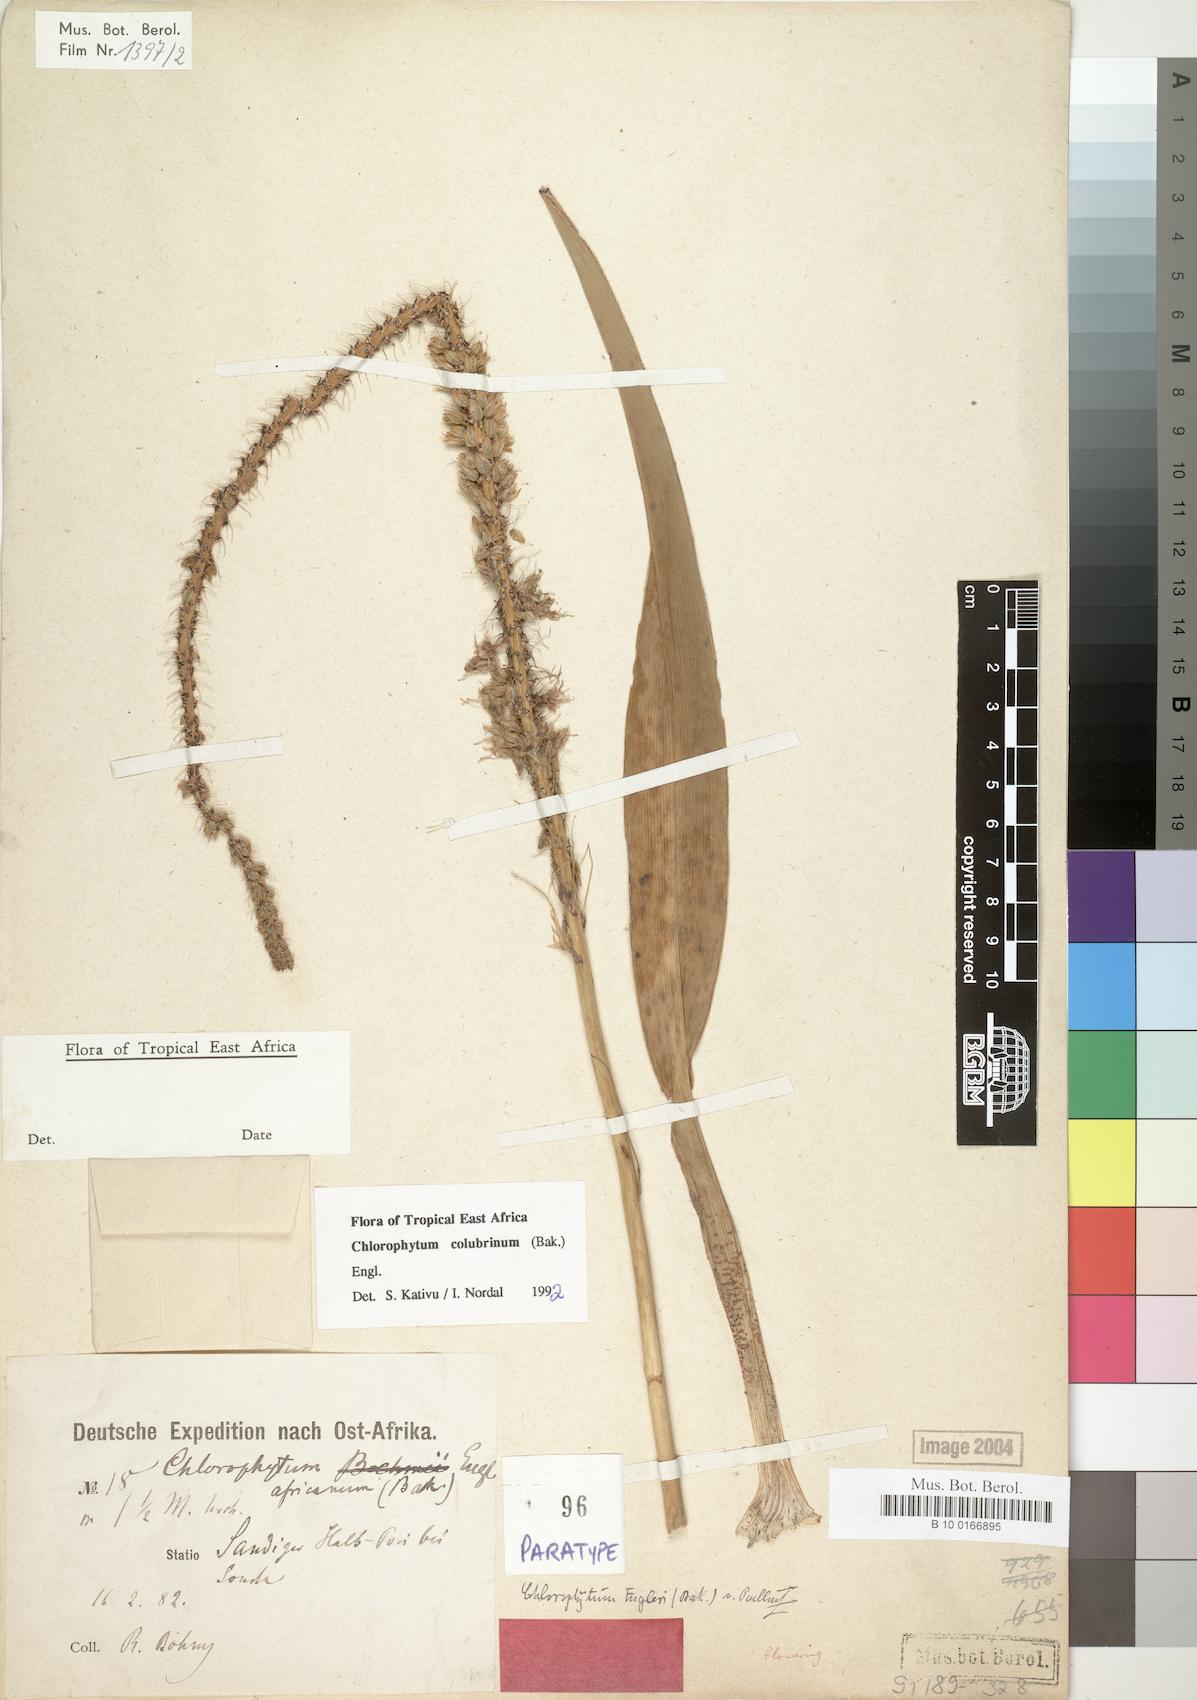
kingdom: Plantae
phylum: Tracheophyta
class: Liliopsida
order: Asparagales
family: Asparagaceae
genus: Chlorophytum
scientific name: Chlorophytum colubrinum
